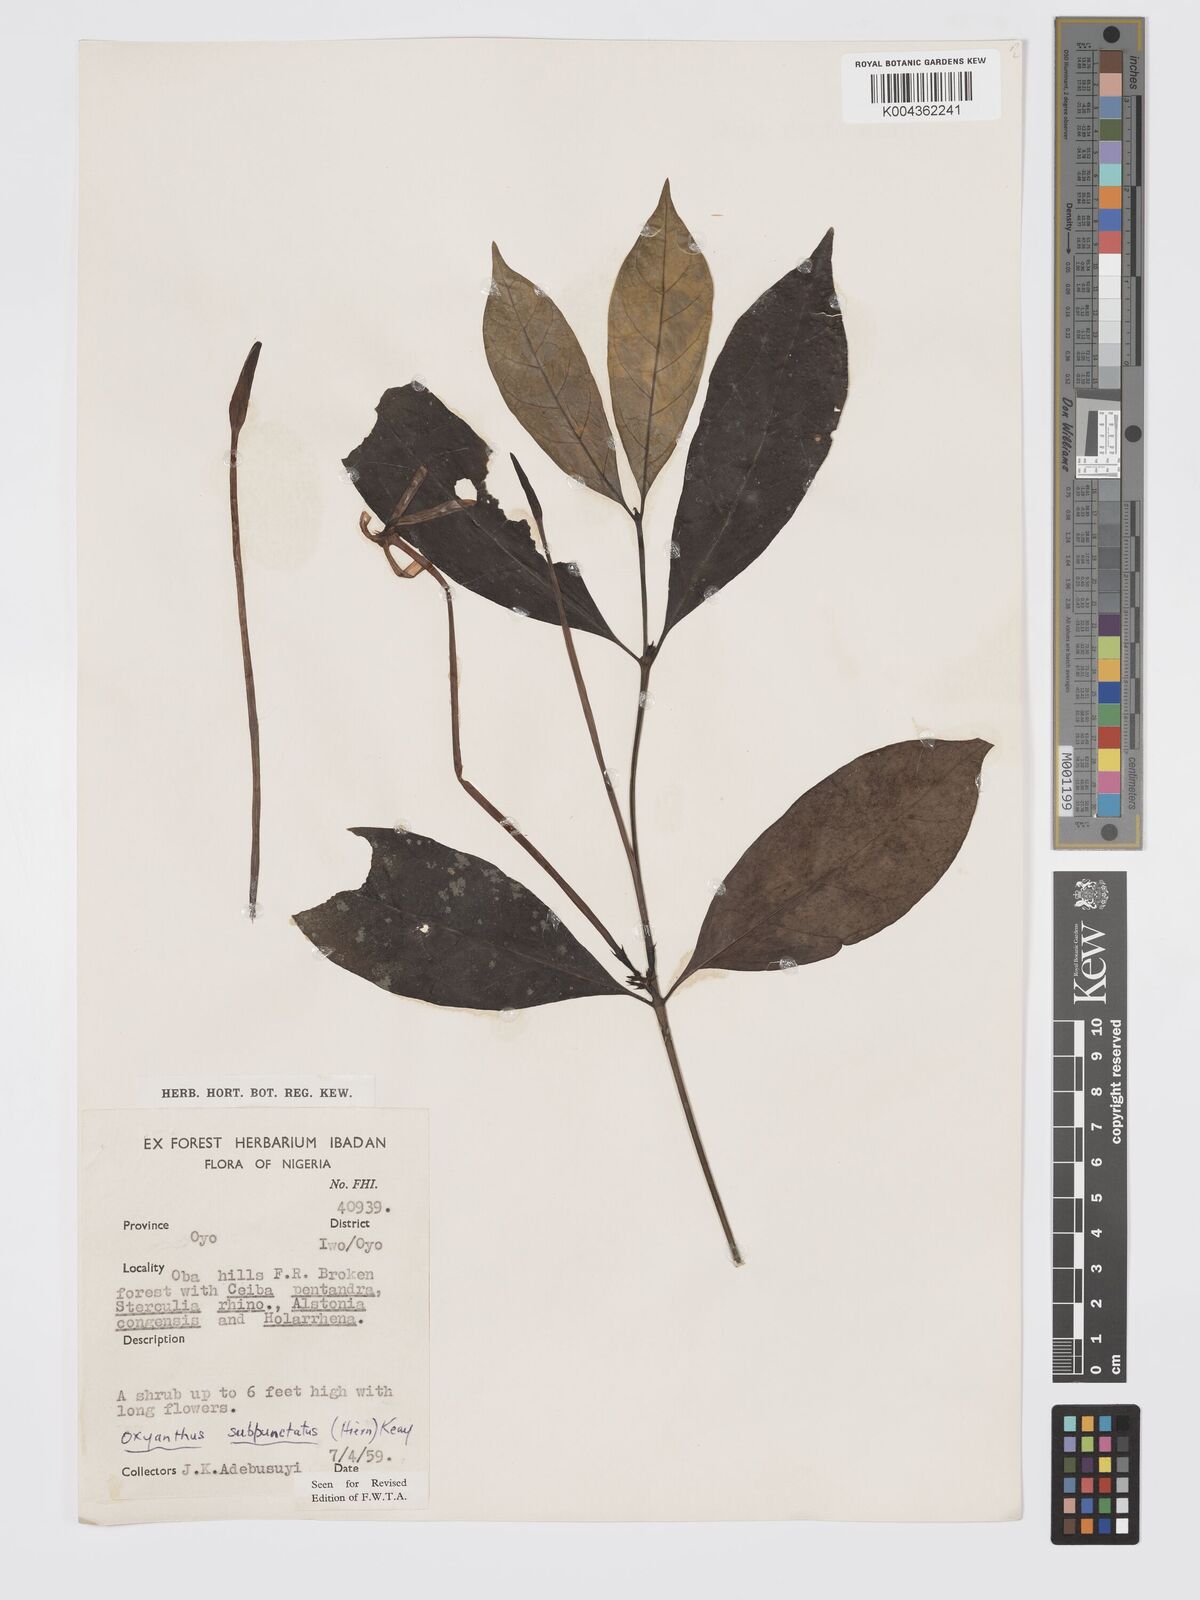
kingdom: Plantae
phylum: Tracheophyta
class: Magnoliopsida
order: Gentianales
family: Rubiaceae
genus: Oxyanthus
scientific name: Oxyanthus subpunctatus
